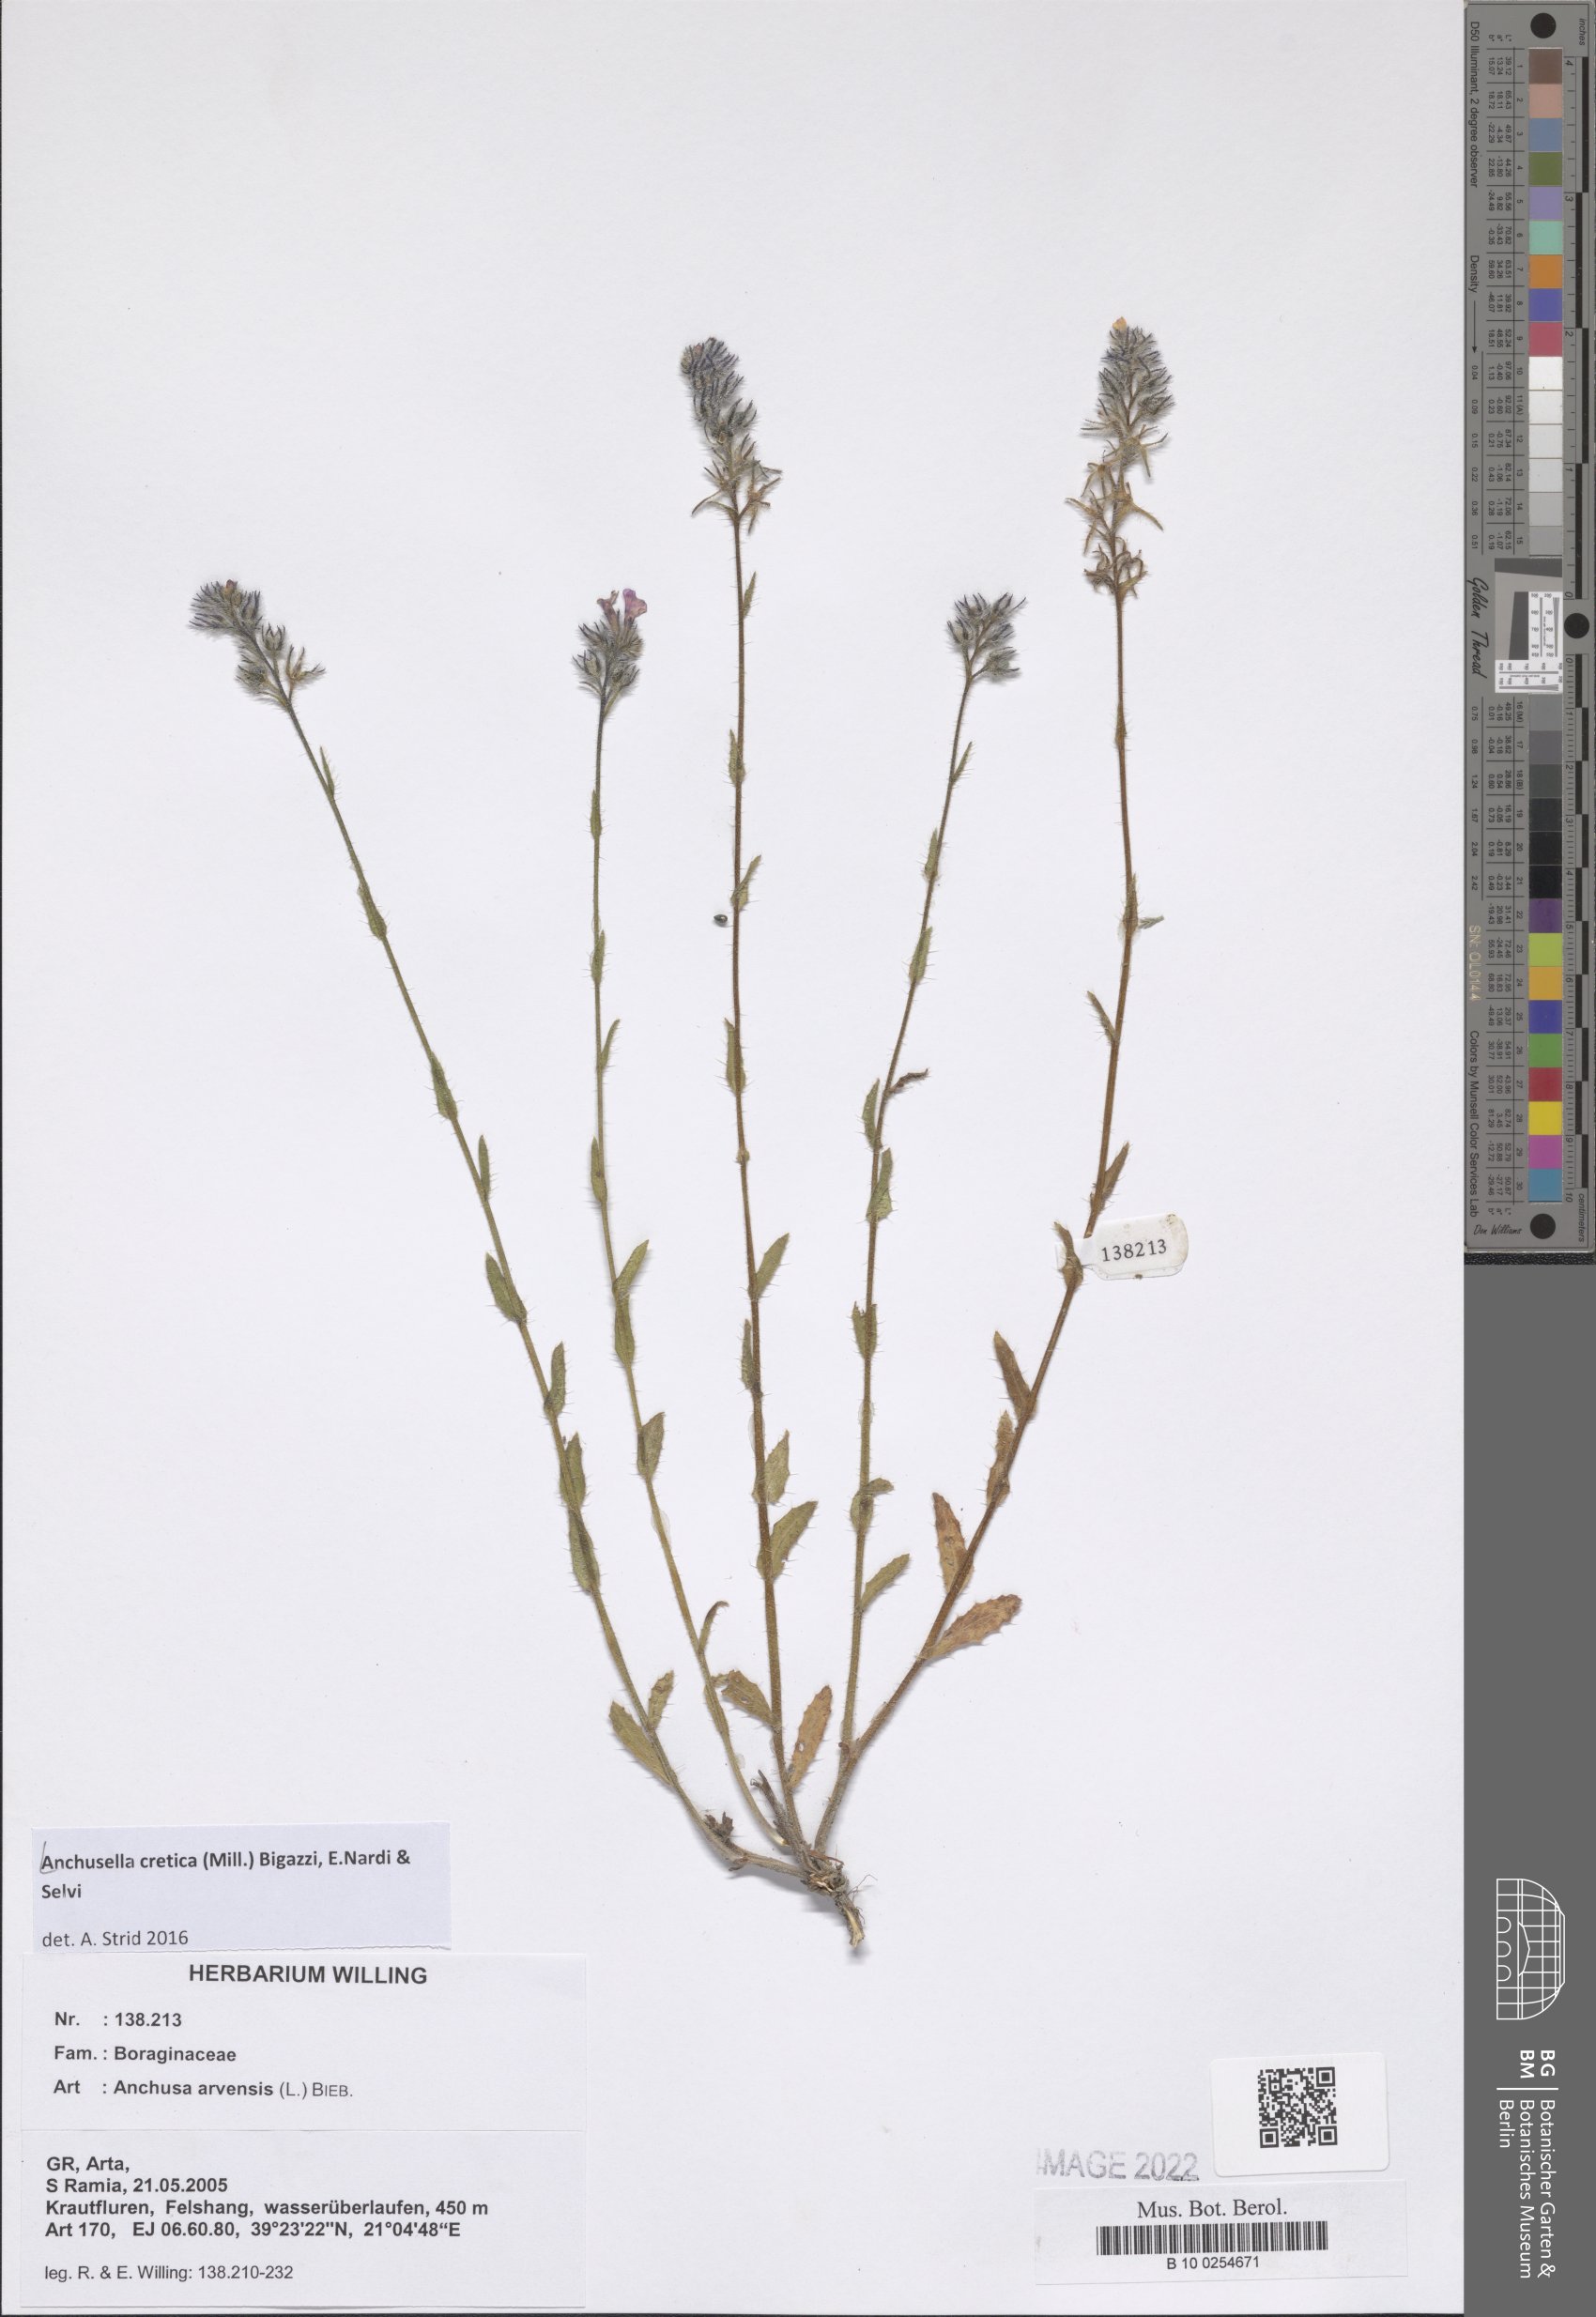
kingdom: Plantae
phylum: Tracheophyta
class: Magnoliopsida
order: Boraginales
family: Boraginaceae
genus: Anchusella
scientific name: Anchusella cretica
